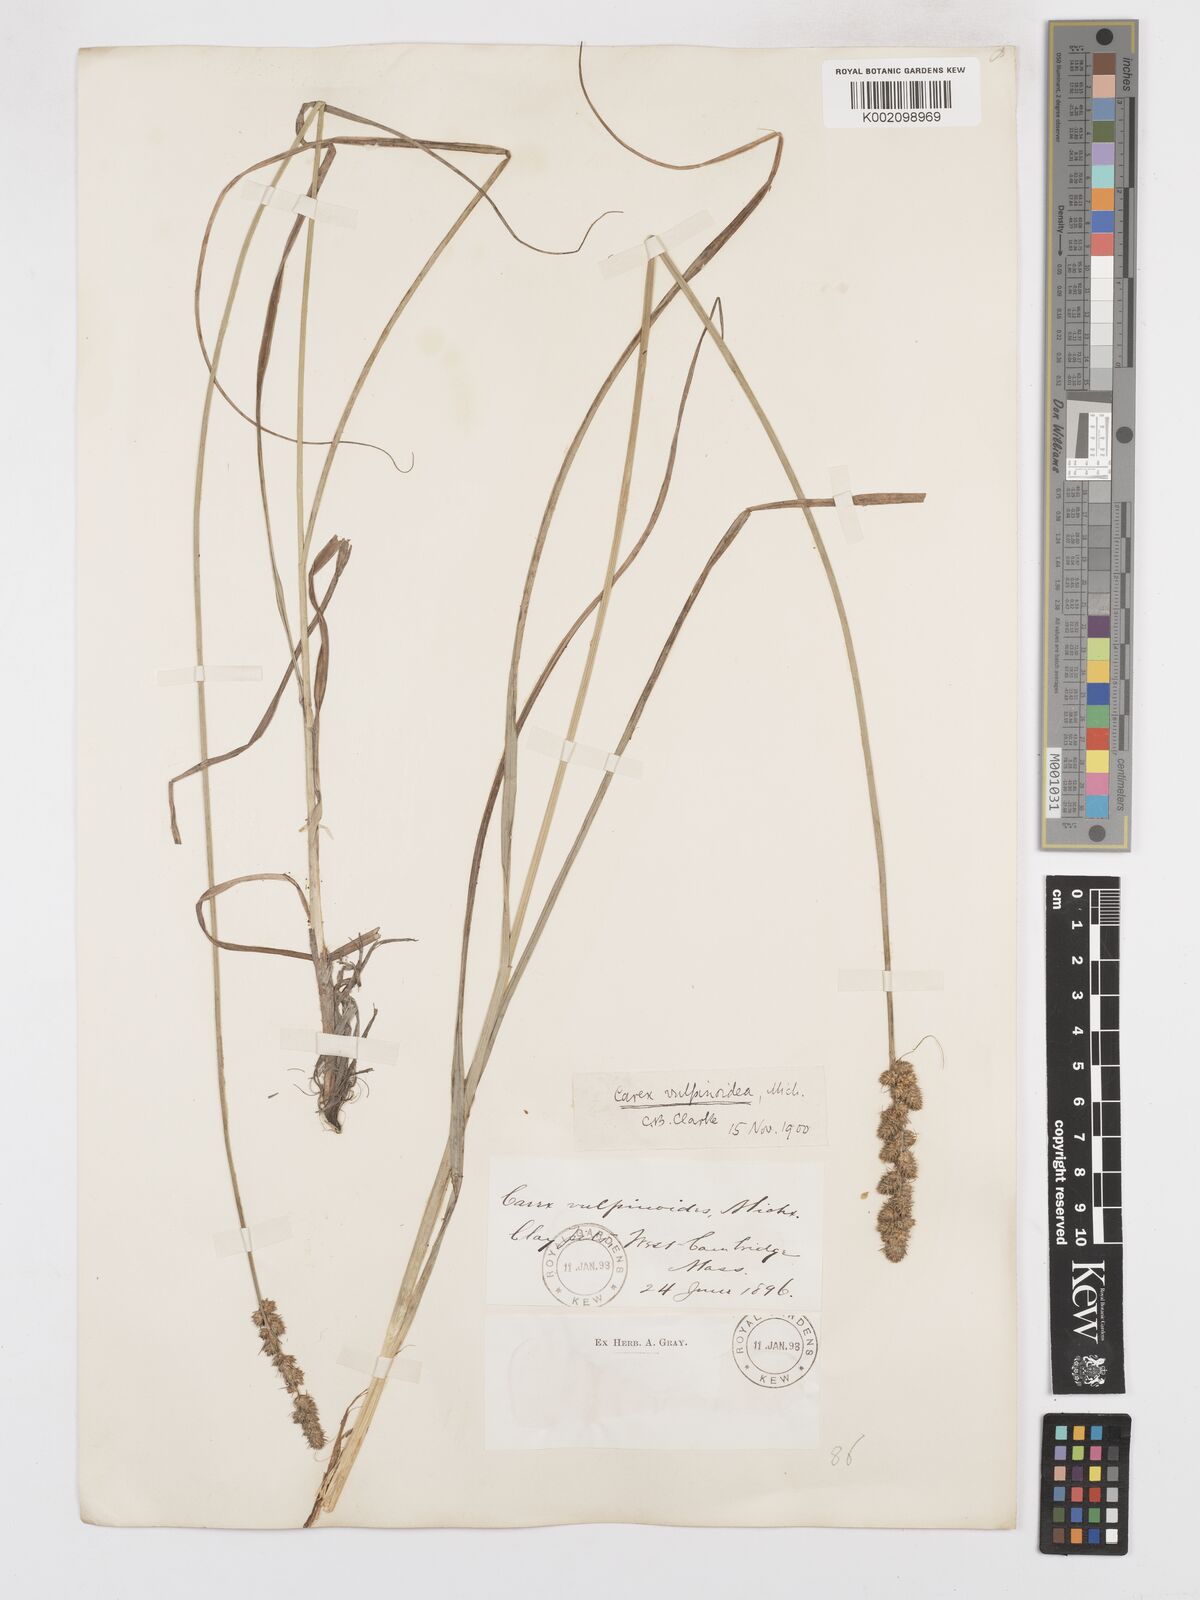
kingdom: Plantae
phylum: Tracheophyta
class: Liliopsida
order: Poales
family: Cyperaceae
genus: Carex
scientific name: Carex vulpinoidea
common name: American fox-sedge
